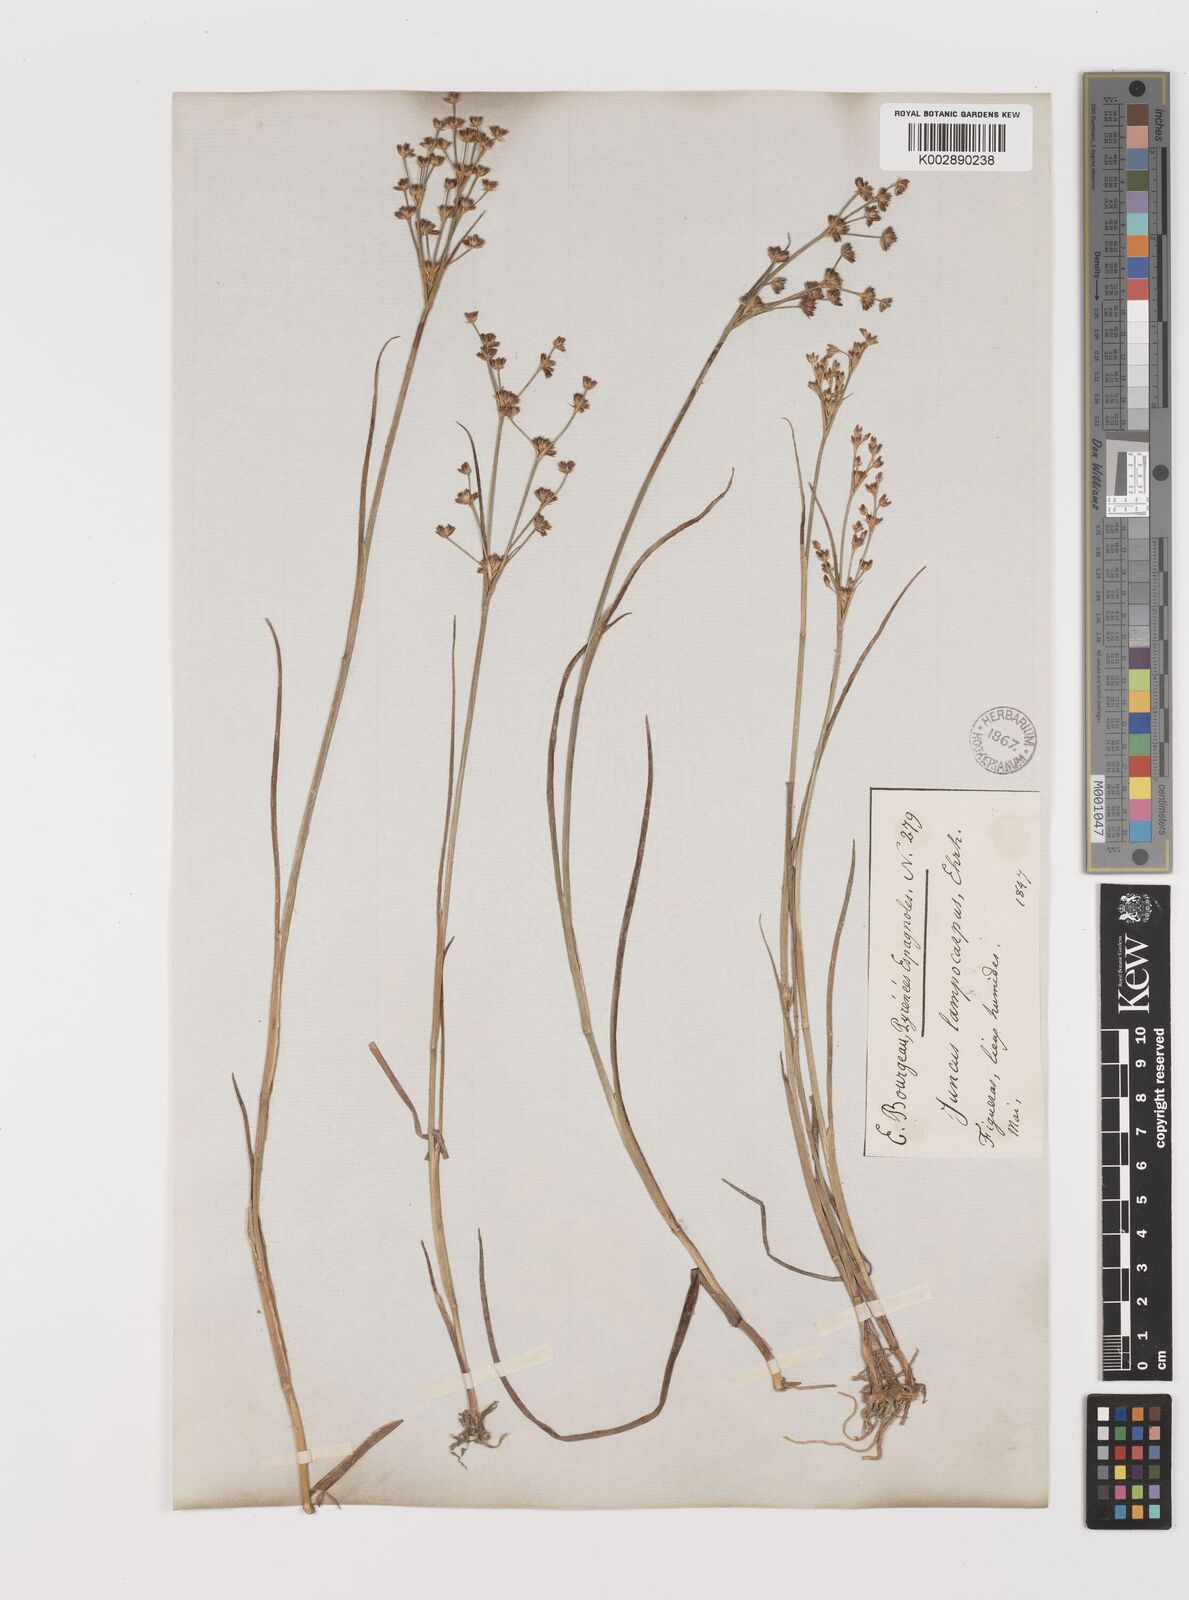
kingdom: Plantae
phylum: Tracheophyta
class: Liliopsida
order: Poales
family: Juncaceae
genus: Juncus
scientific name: Juncus articulatus
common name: Jointed rush
